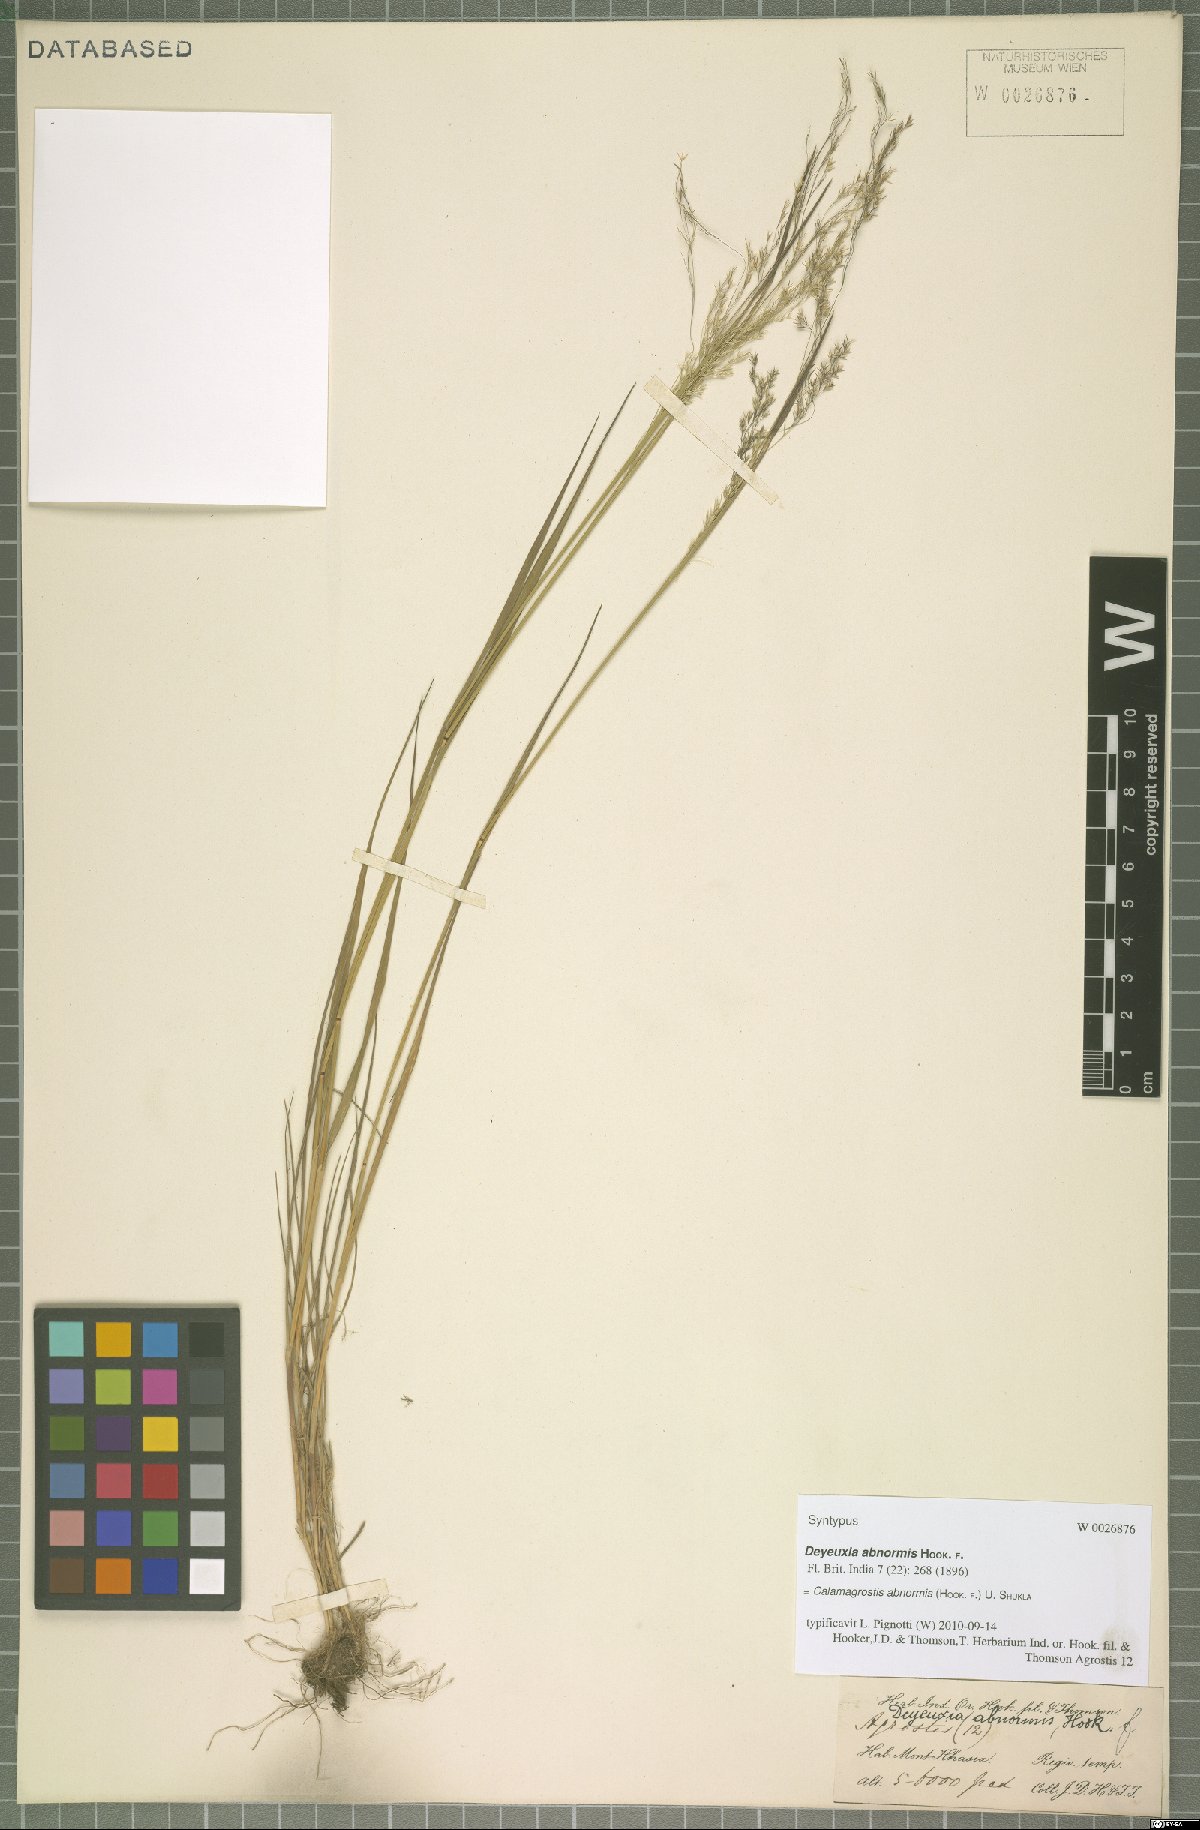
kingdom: Plantae
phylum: Tracheophyta
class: Liliopsida
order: Poales
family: Poaceae
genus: Agrostis
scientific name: Agrostis zenkeri
